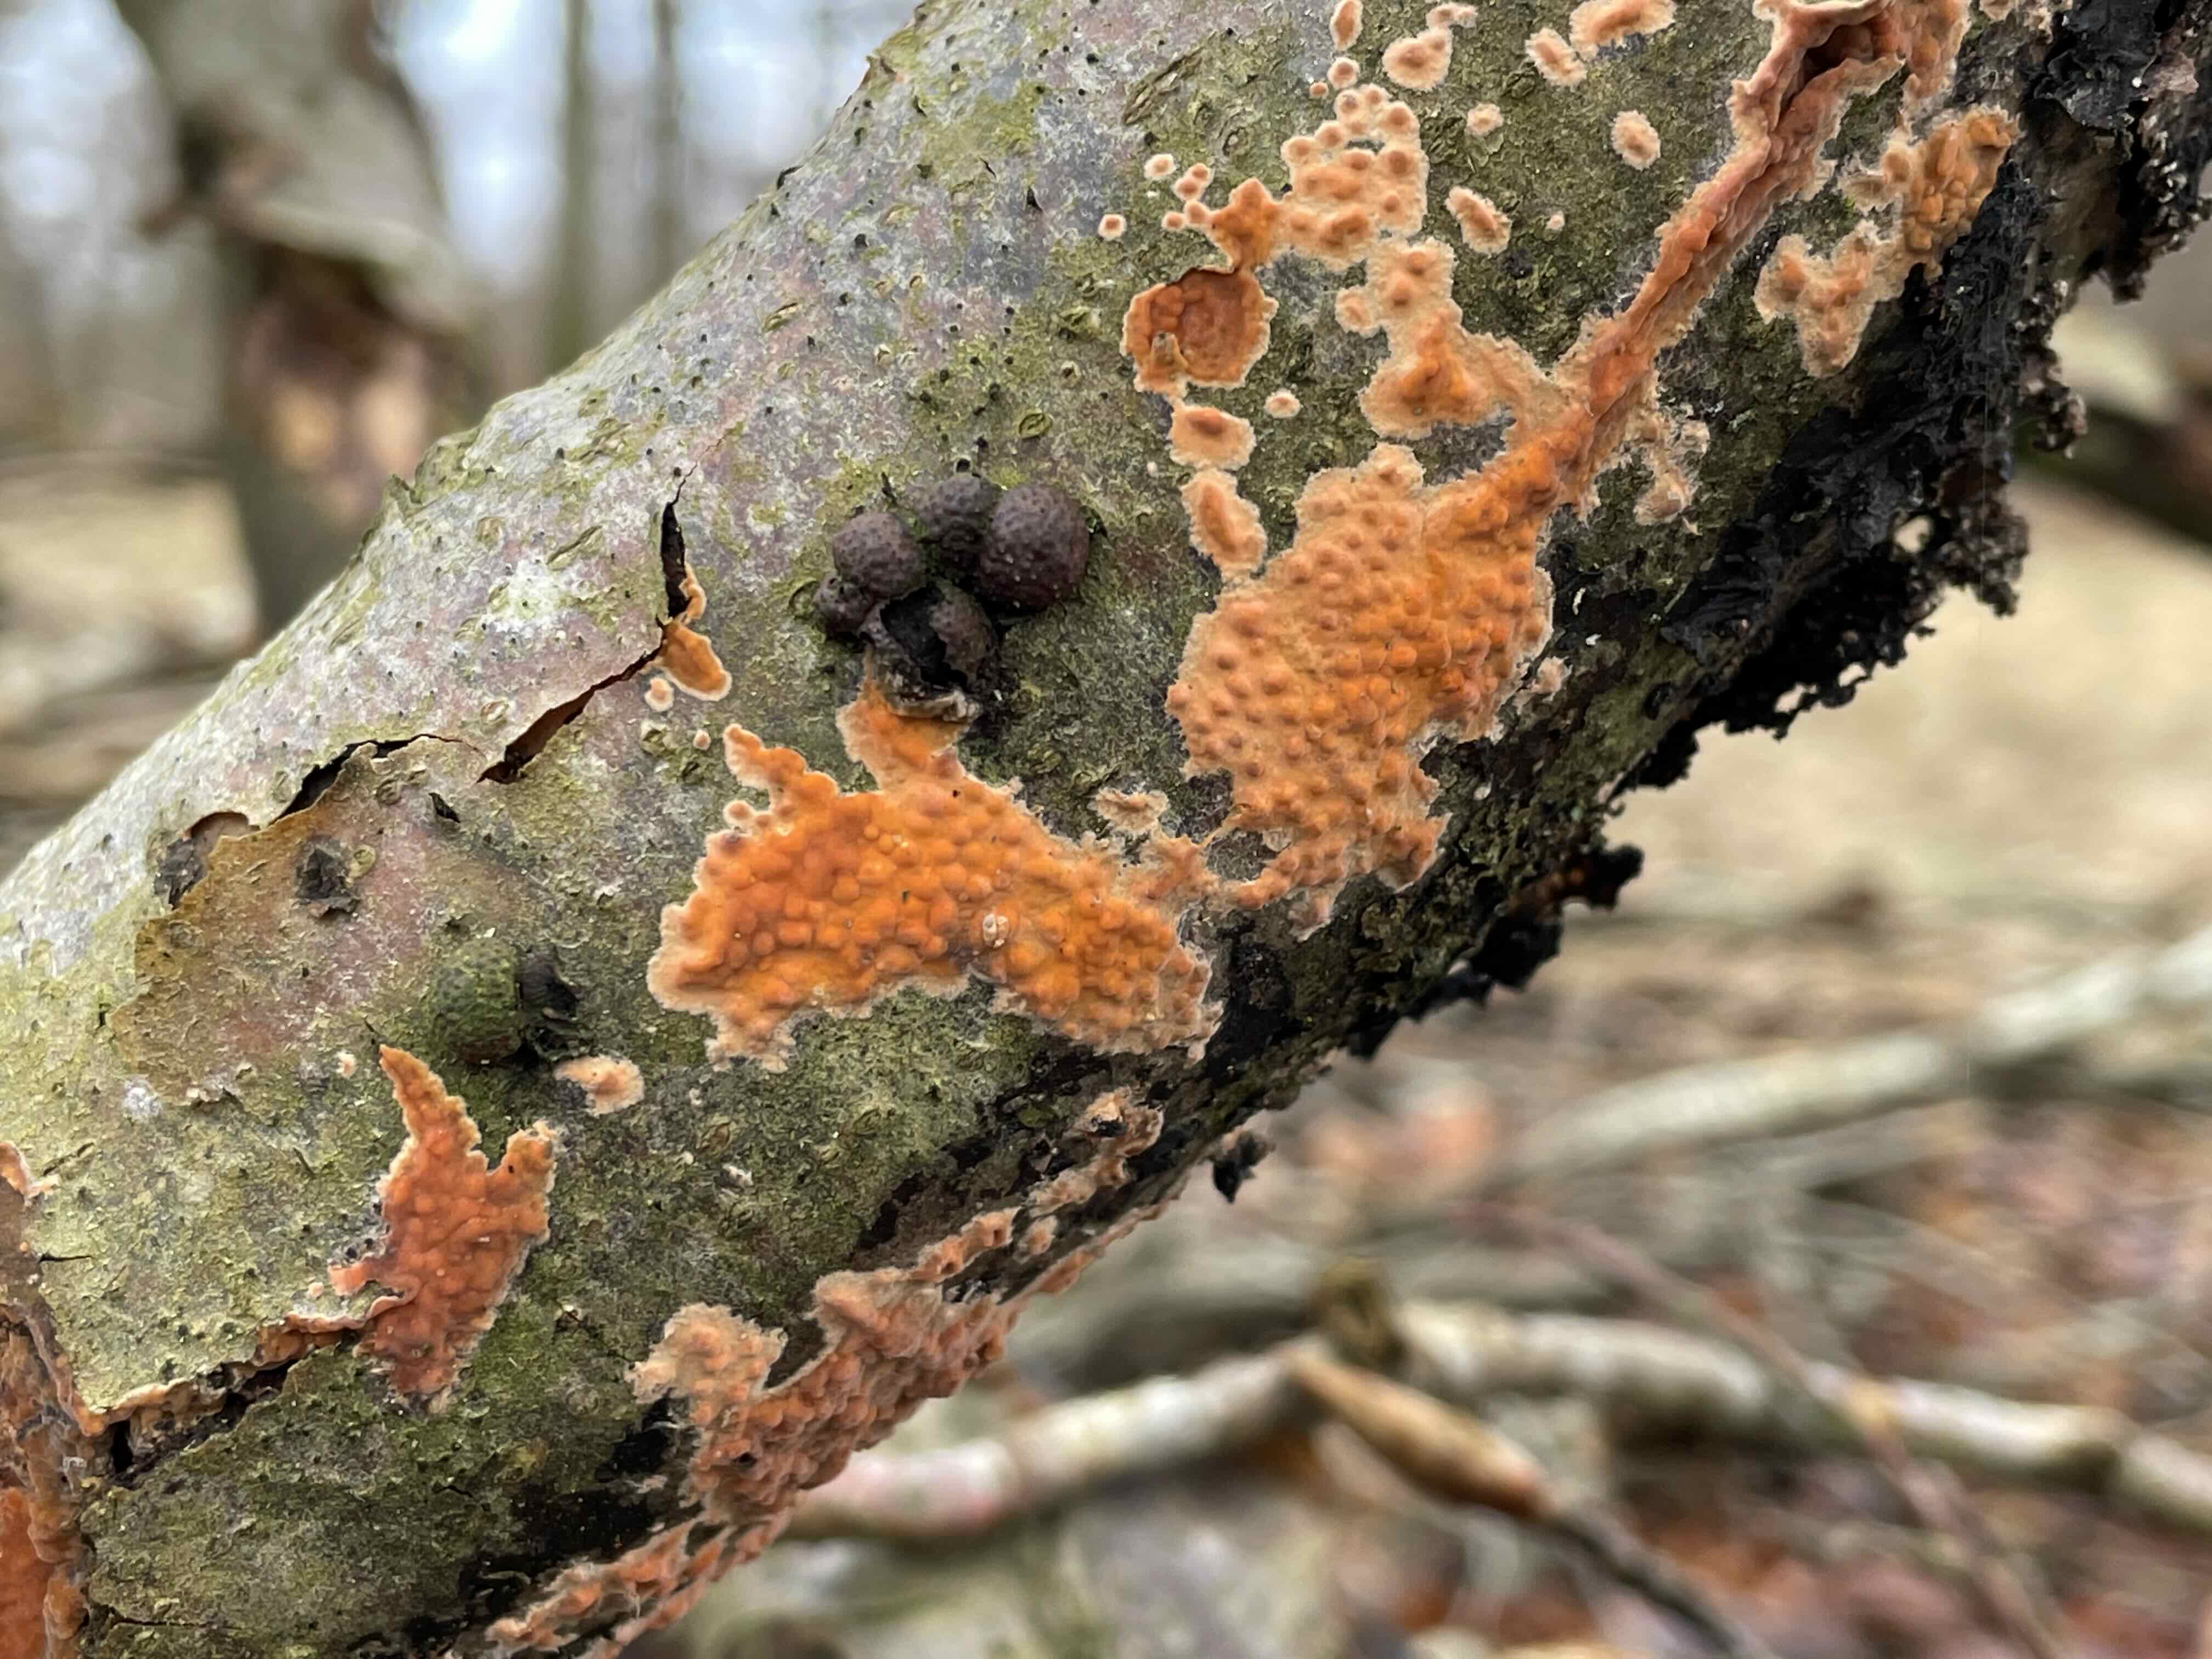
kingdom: Fungi
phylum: Basidiomycota
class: Agaricomycetes
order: Russulales
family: Peniophoraceae
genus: Peniophora
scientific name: Peniophora incarnata
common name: laksefarvet voksskind
